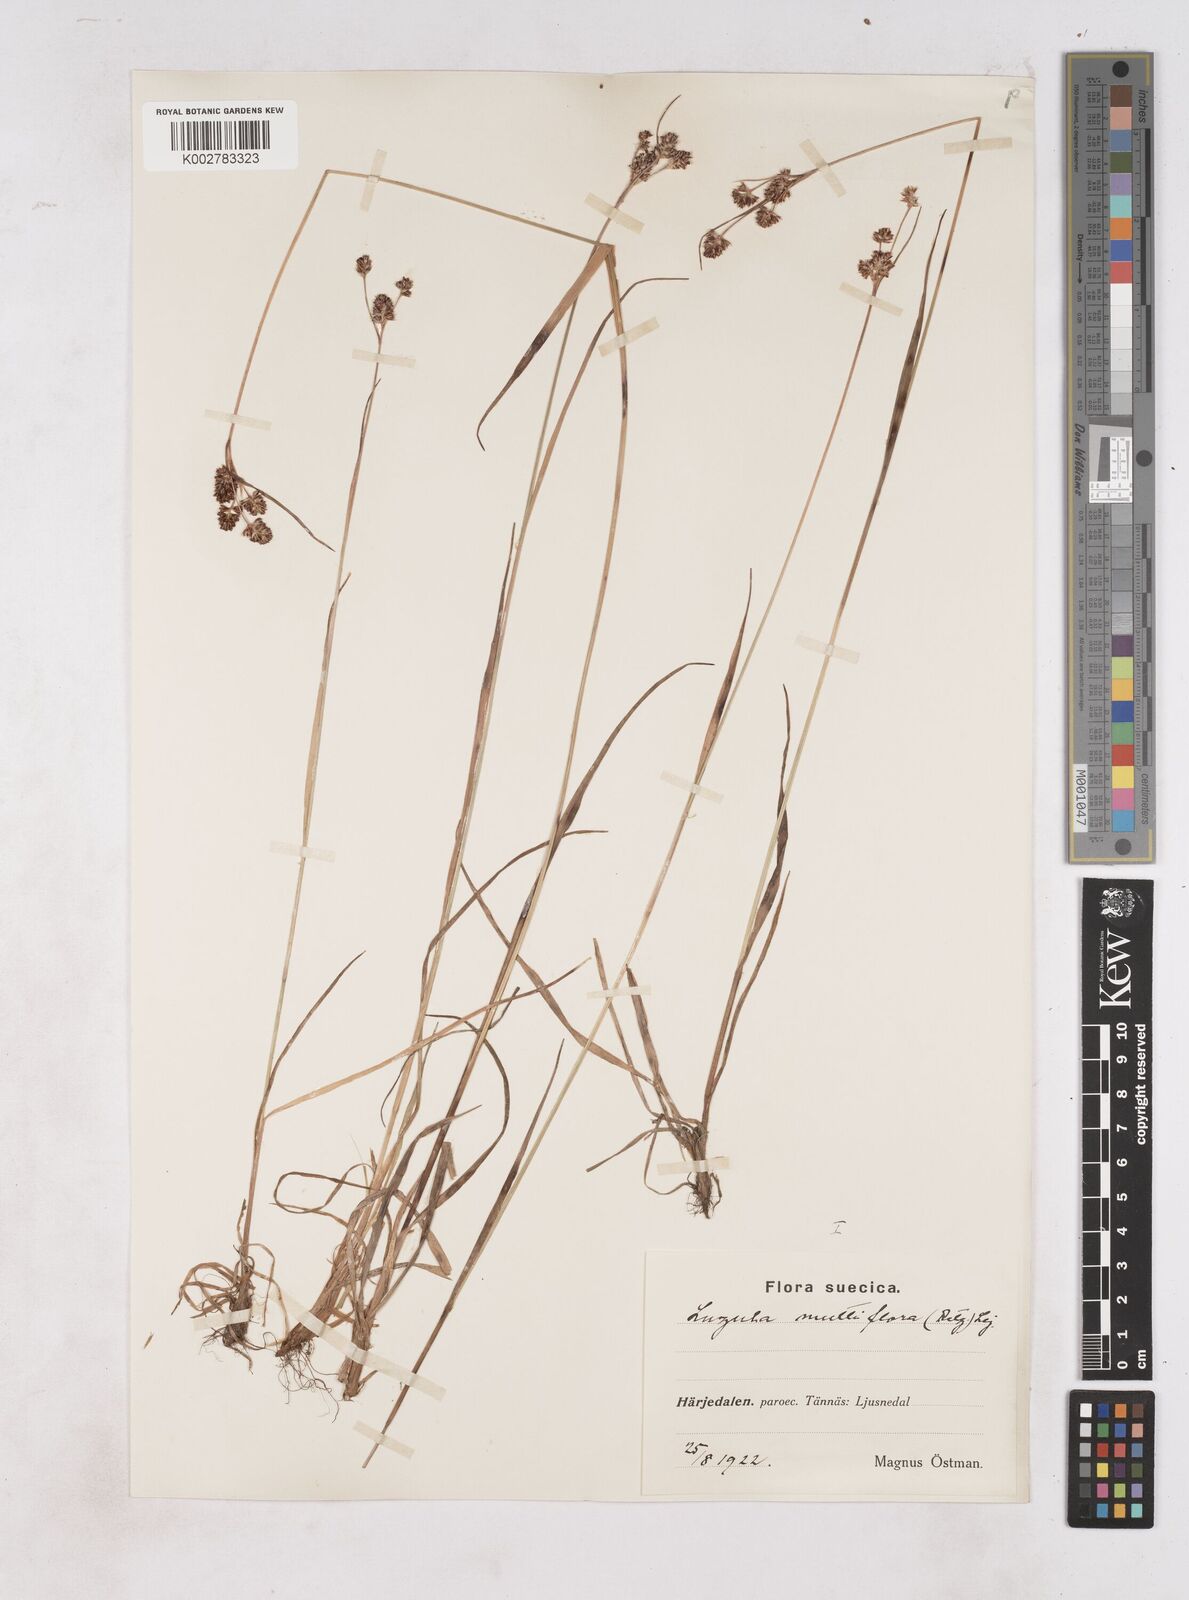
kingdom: Plantae
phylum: Tracheophyta
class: Liliopsida
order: Poales
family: Juncaceae
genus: Luzula
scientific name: Luzula multiflora
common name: Heath wood-rush
